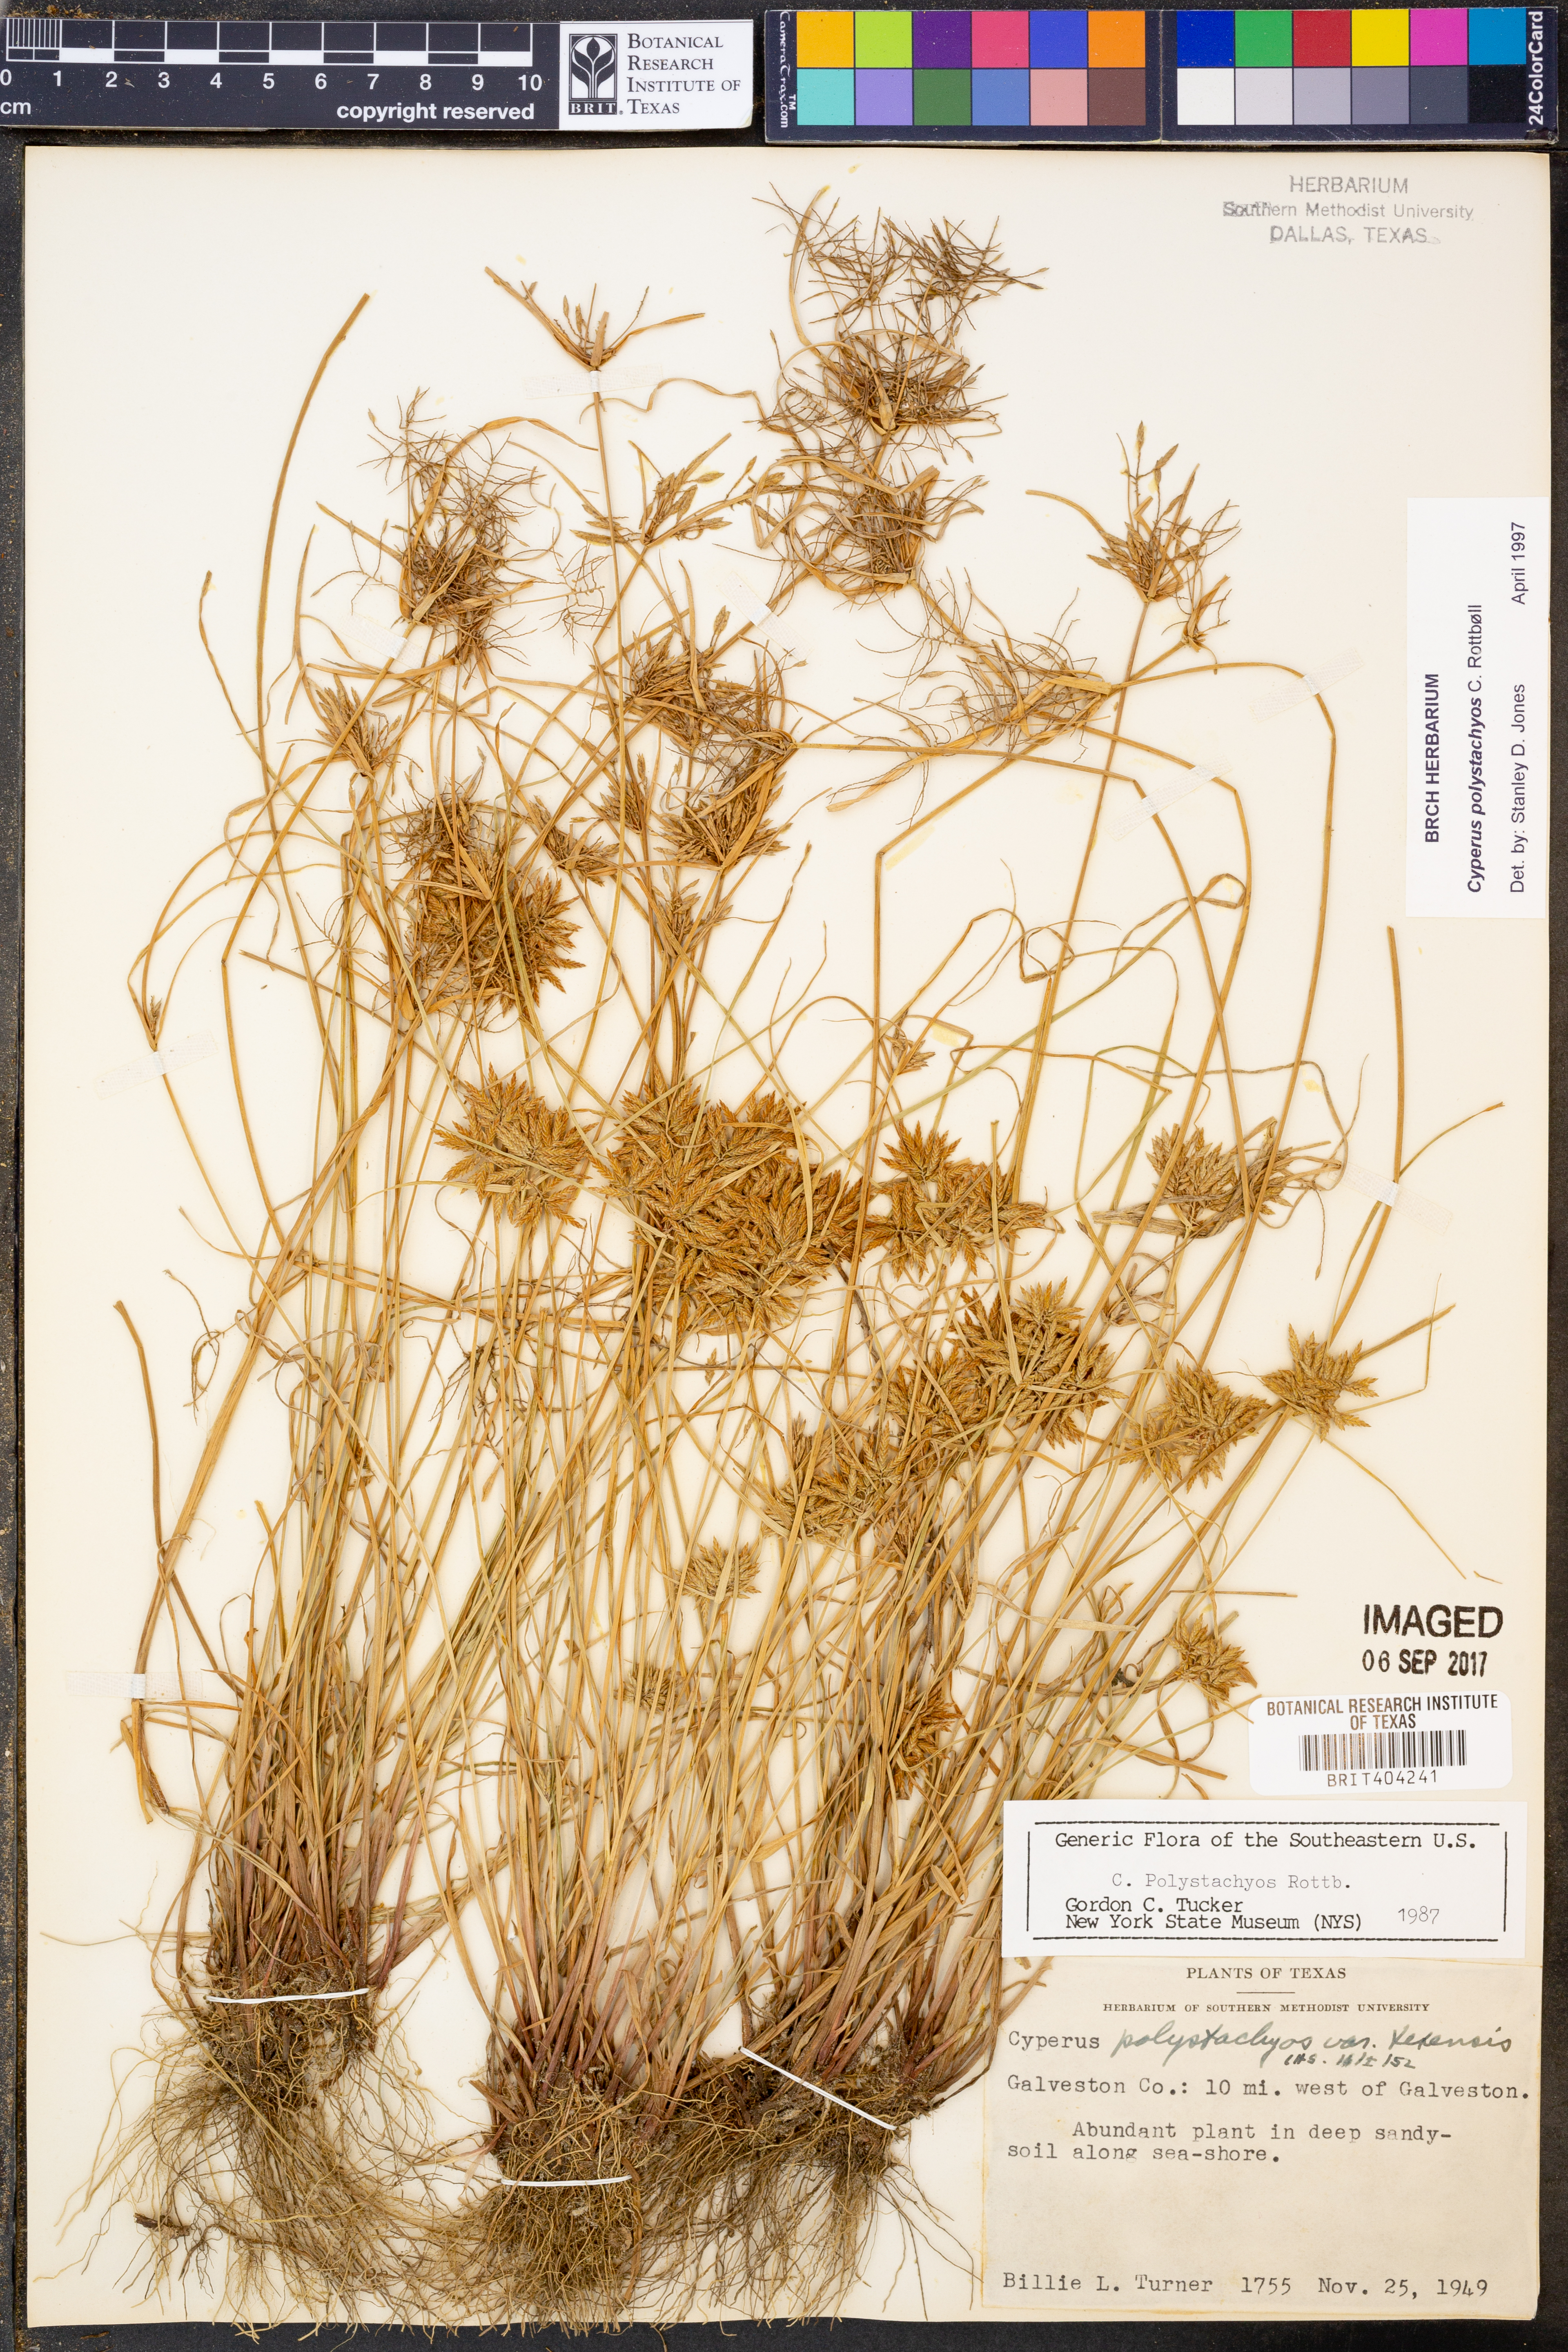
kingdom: Plantae
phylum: Tracheophyta
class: Liliopsida
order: Poales
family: Cyperaceae
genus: Cyperus
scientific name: Cyperus polystachyos
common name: Bunchy flat sedge
